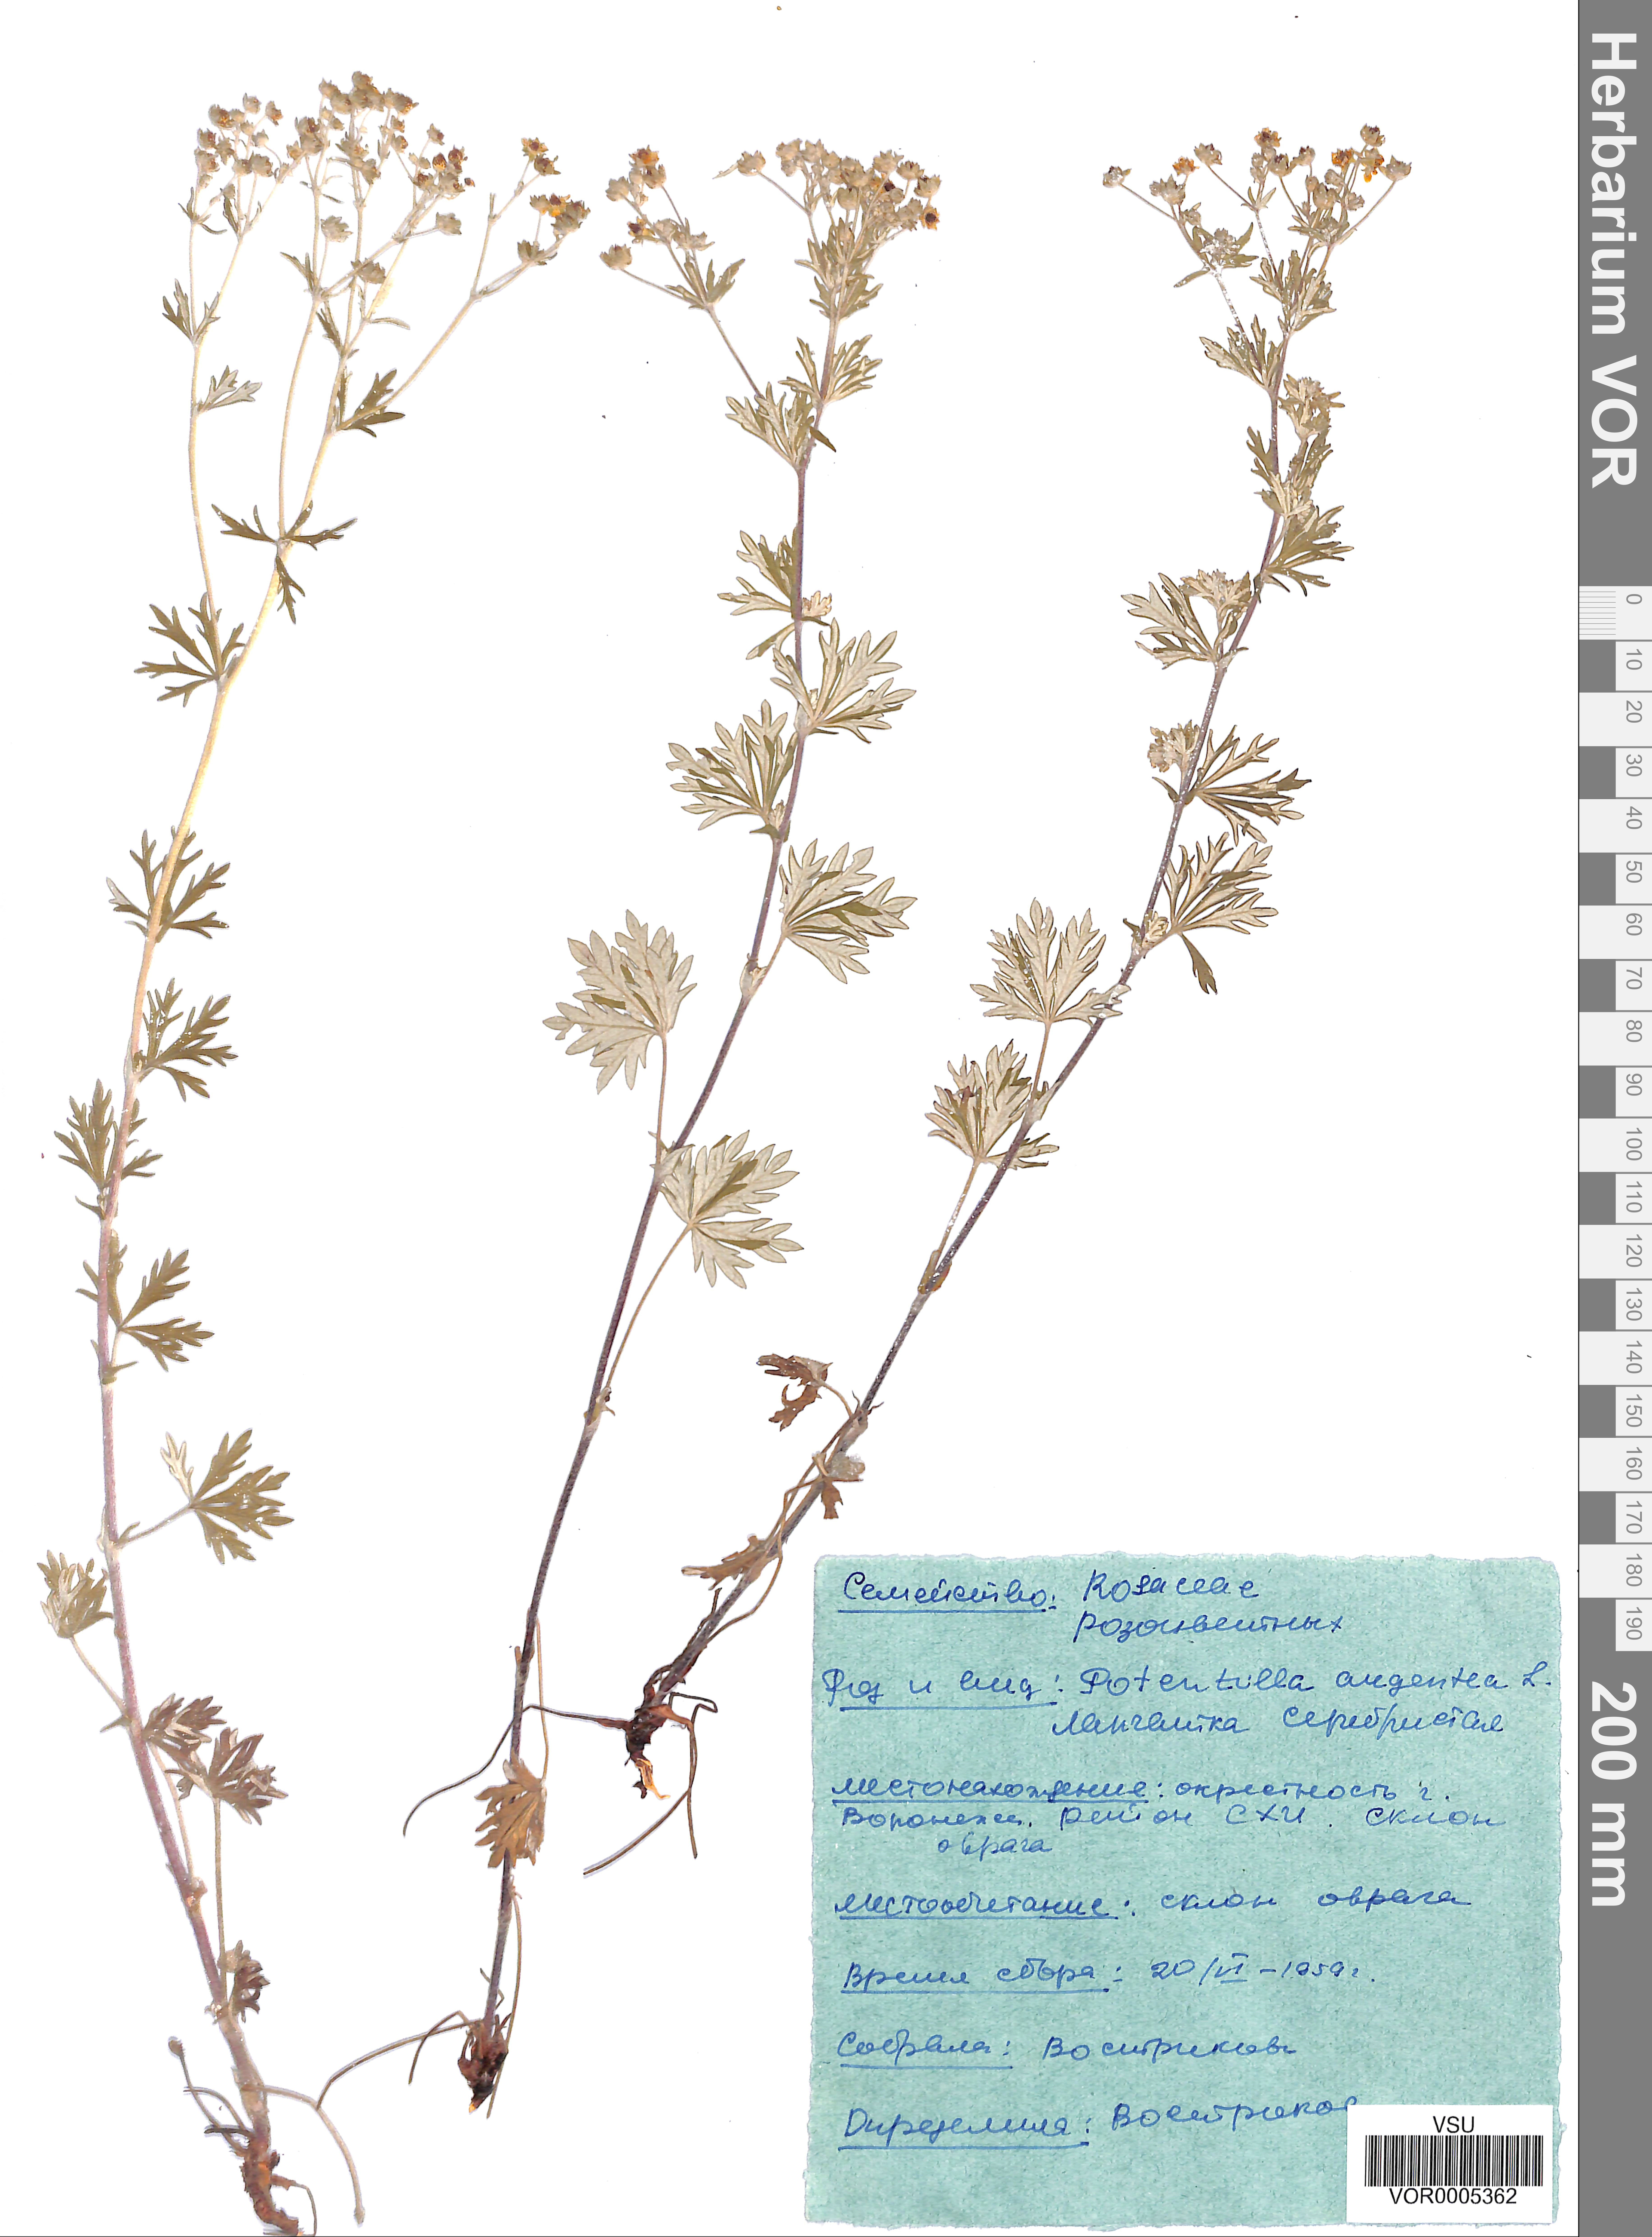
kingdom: Plantae
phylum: Tracheophyta
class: Magnoliopsida
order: Rosales
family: Rosaceae
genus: Potentilla
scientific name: Potentilla argentea
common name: Hoary cinquefoil
